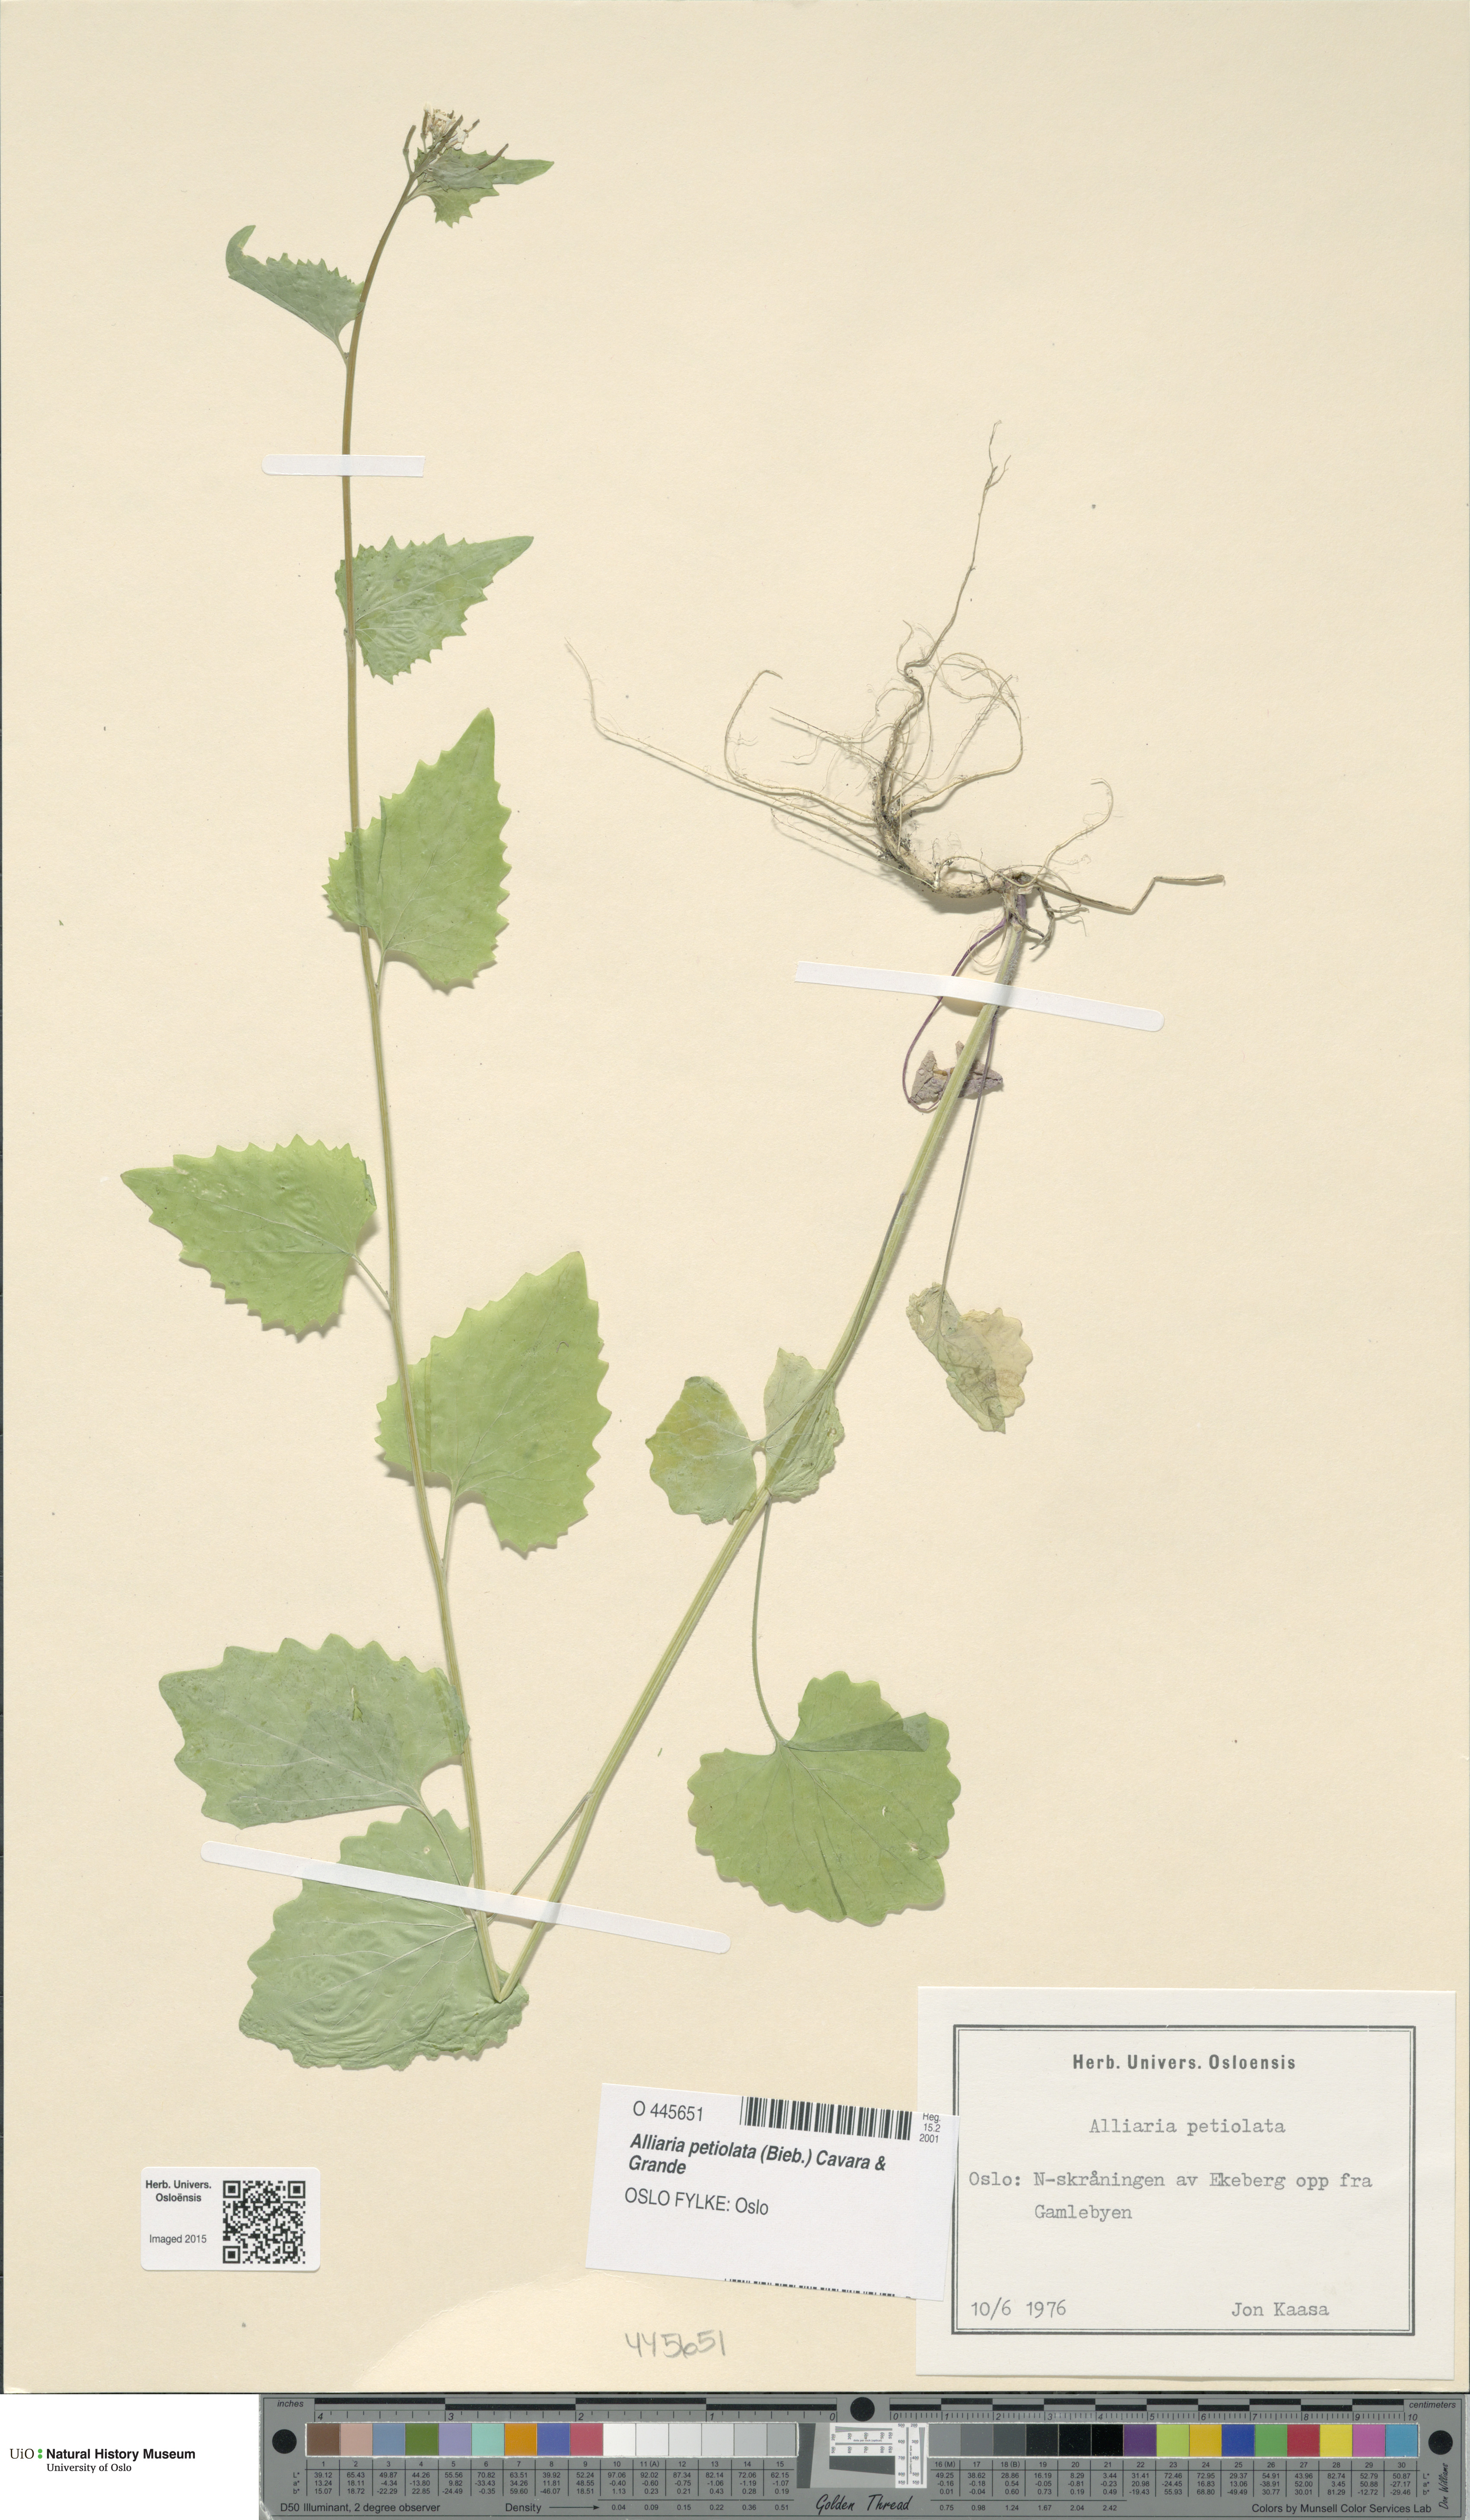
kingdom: Plantae
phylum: Tracheophyta
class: Magnoliopsida
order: Brassicales
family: Brassicaceae
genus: Alliaria
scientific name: Alliaria petiolata
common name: Garlic mustard
